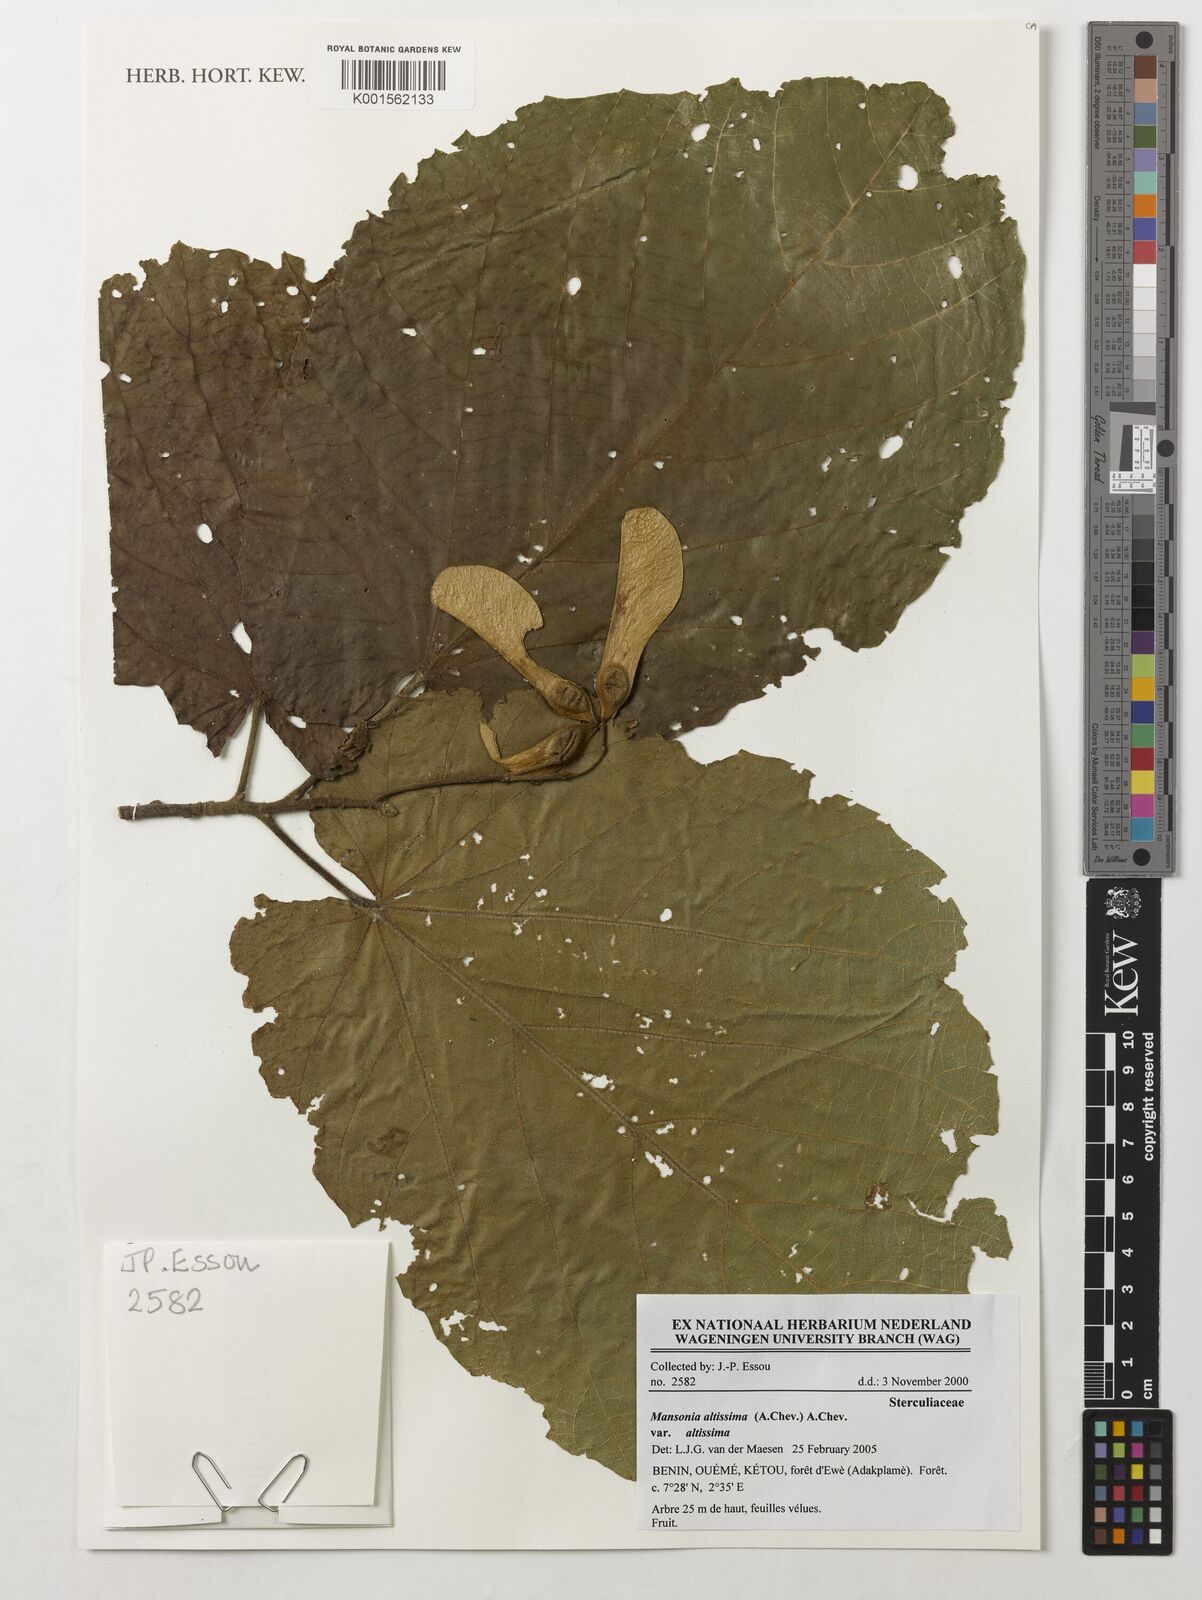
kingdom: Plantae
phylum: Tracheophyta
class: Magnoliopsida
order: Malvales
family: Malvaceae
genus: Mansonia
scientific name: Mansonia altissima
